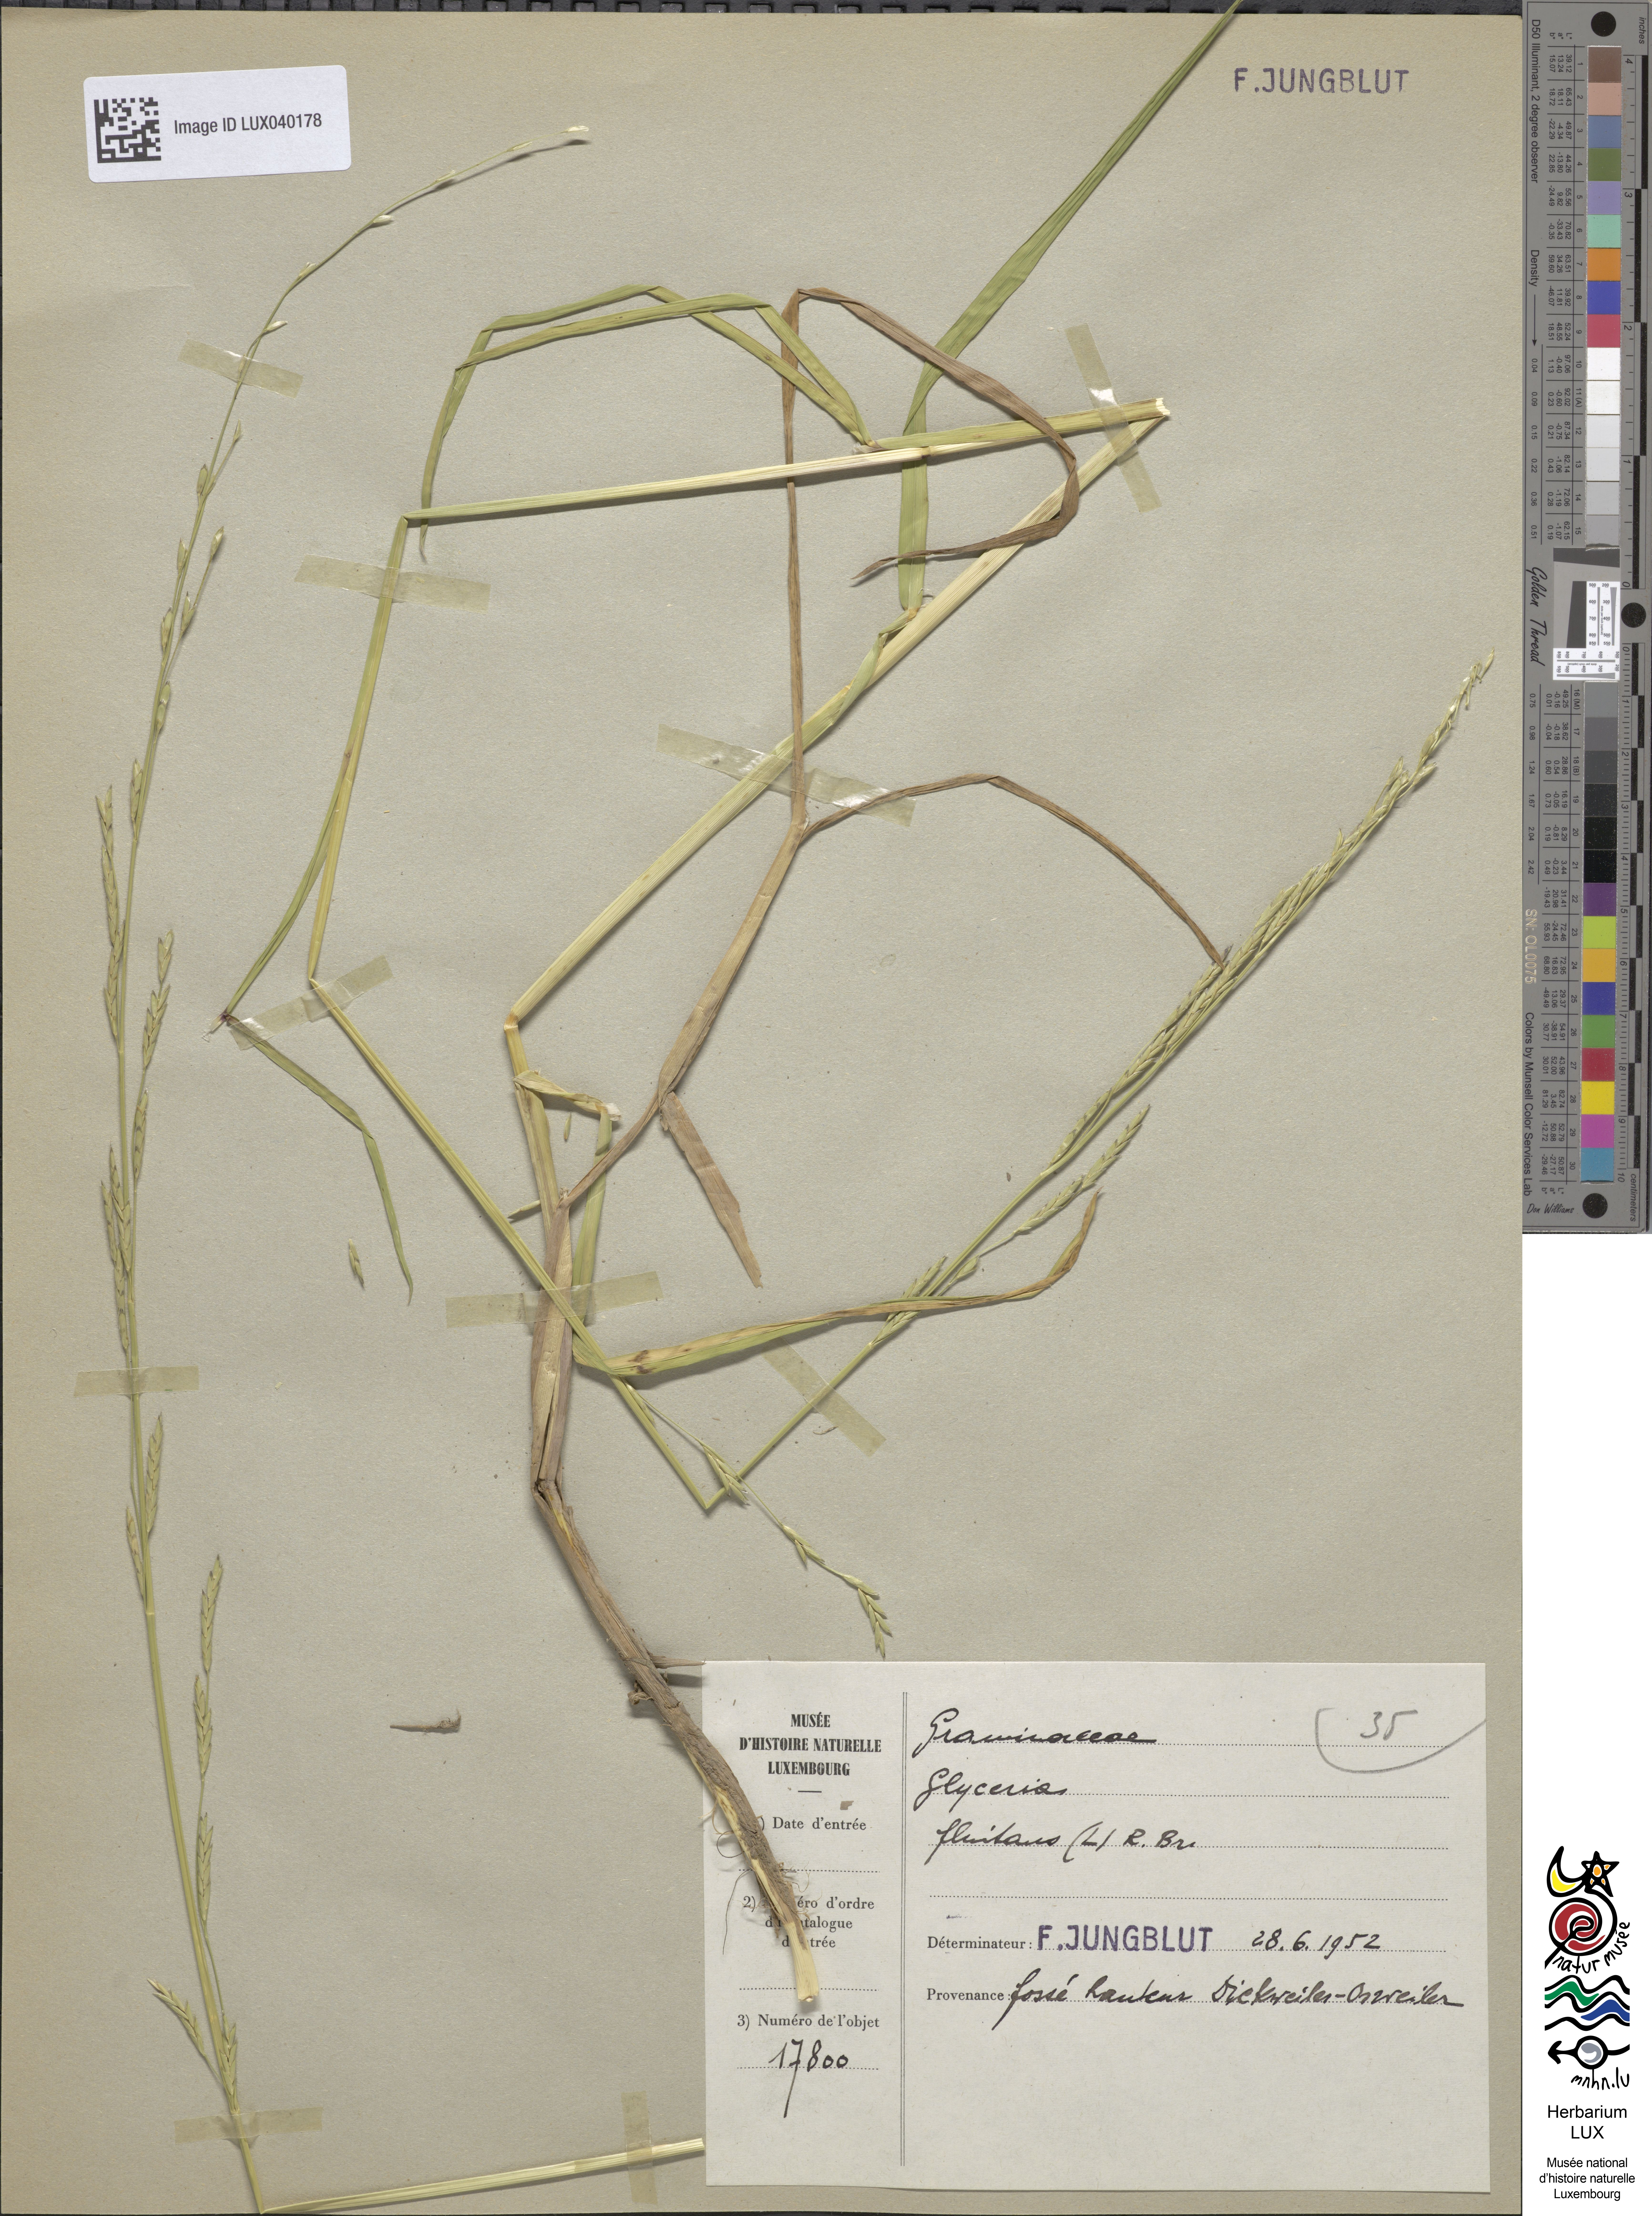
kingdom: Plantae
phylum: Tracheophyta
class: Liliopsida
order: Poales
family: Poaceae
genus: Glyceria
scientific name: Glyceria fluitans
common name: Floating sweet-grass
